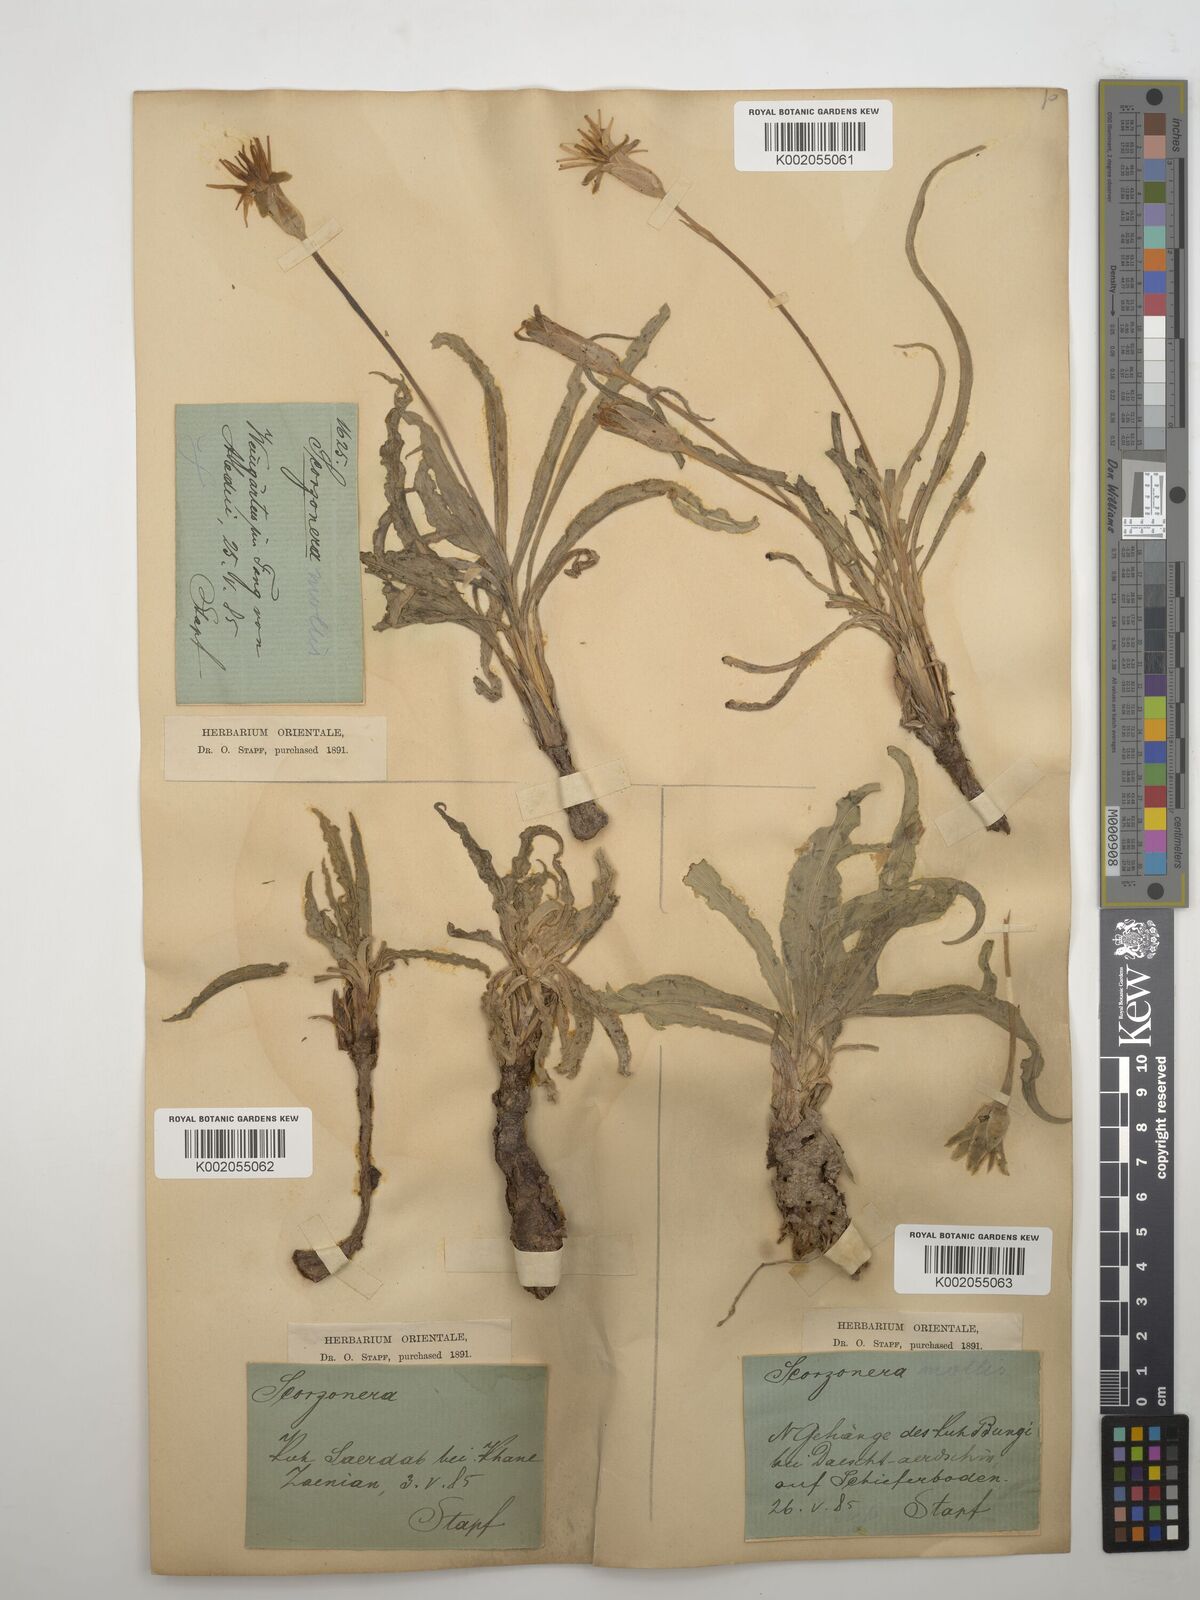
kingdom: Plantae
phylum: Tracheophyta
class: Magnoliopsida
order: Asterales
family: Asteraceae
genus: Candollea
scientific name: Candollea mollis
